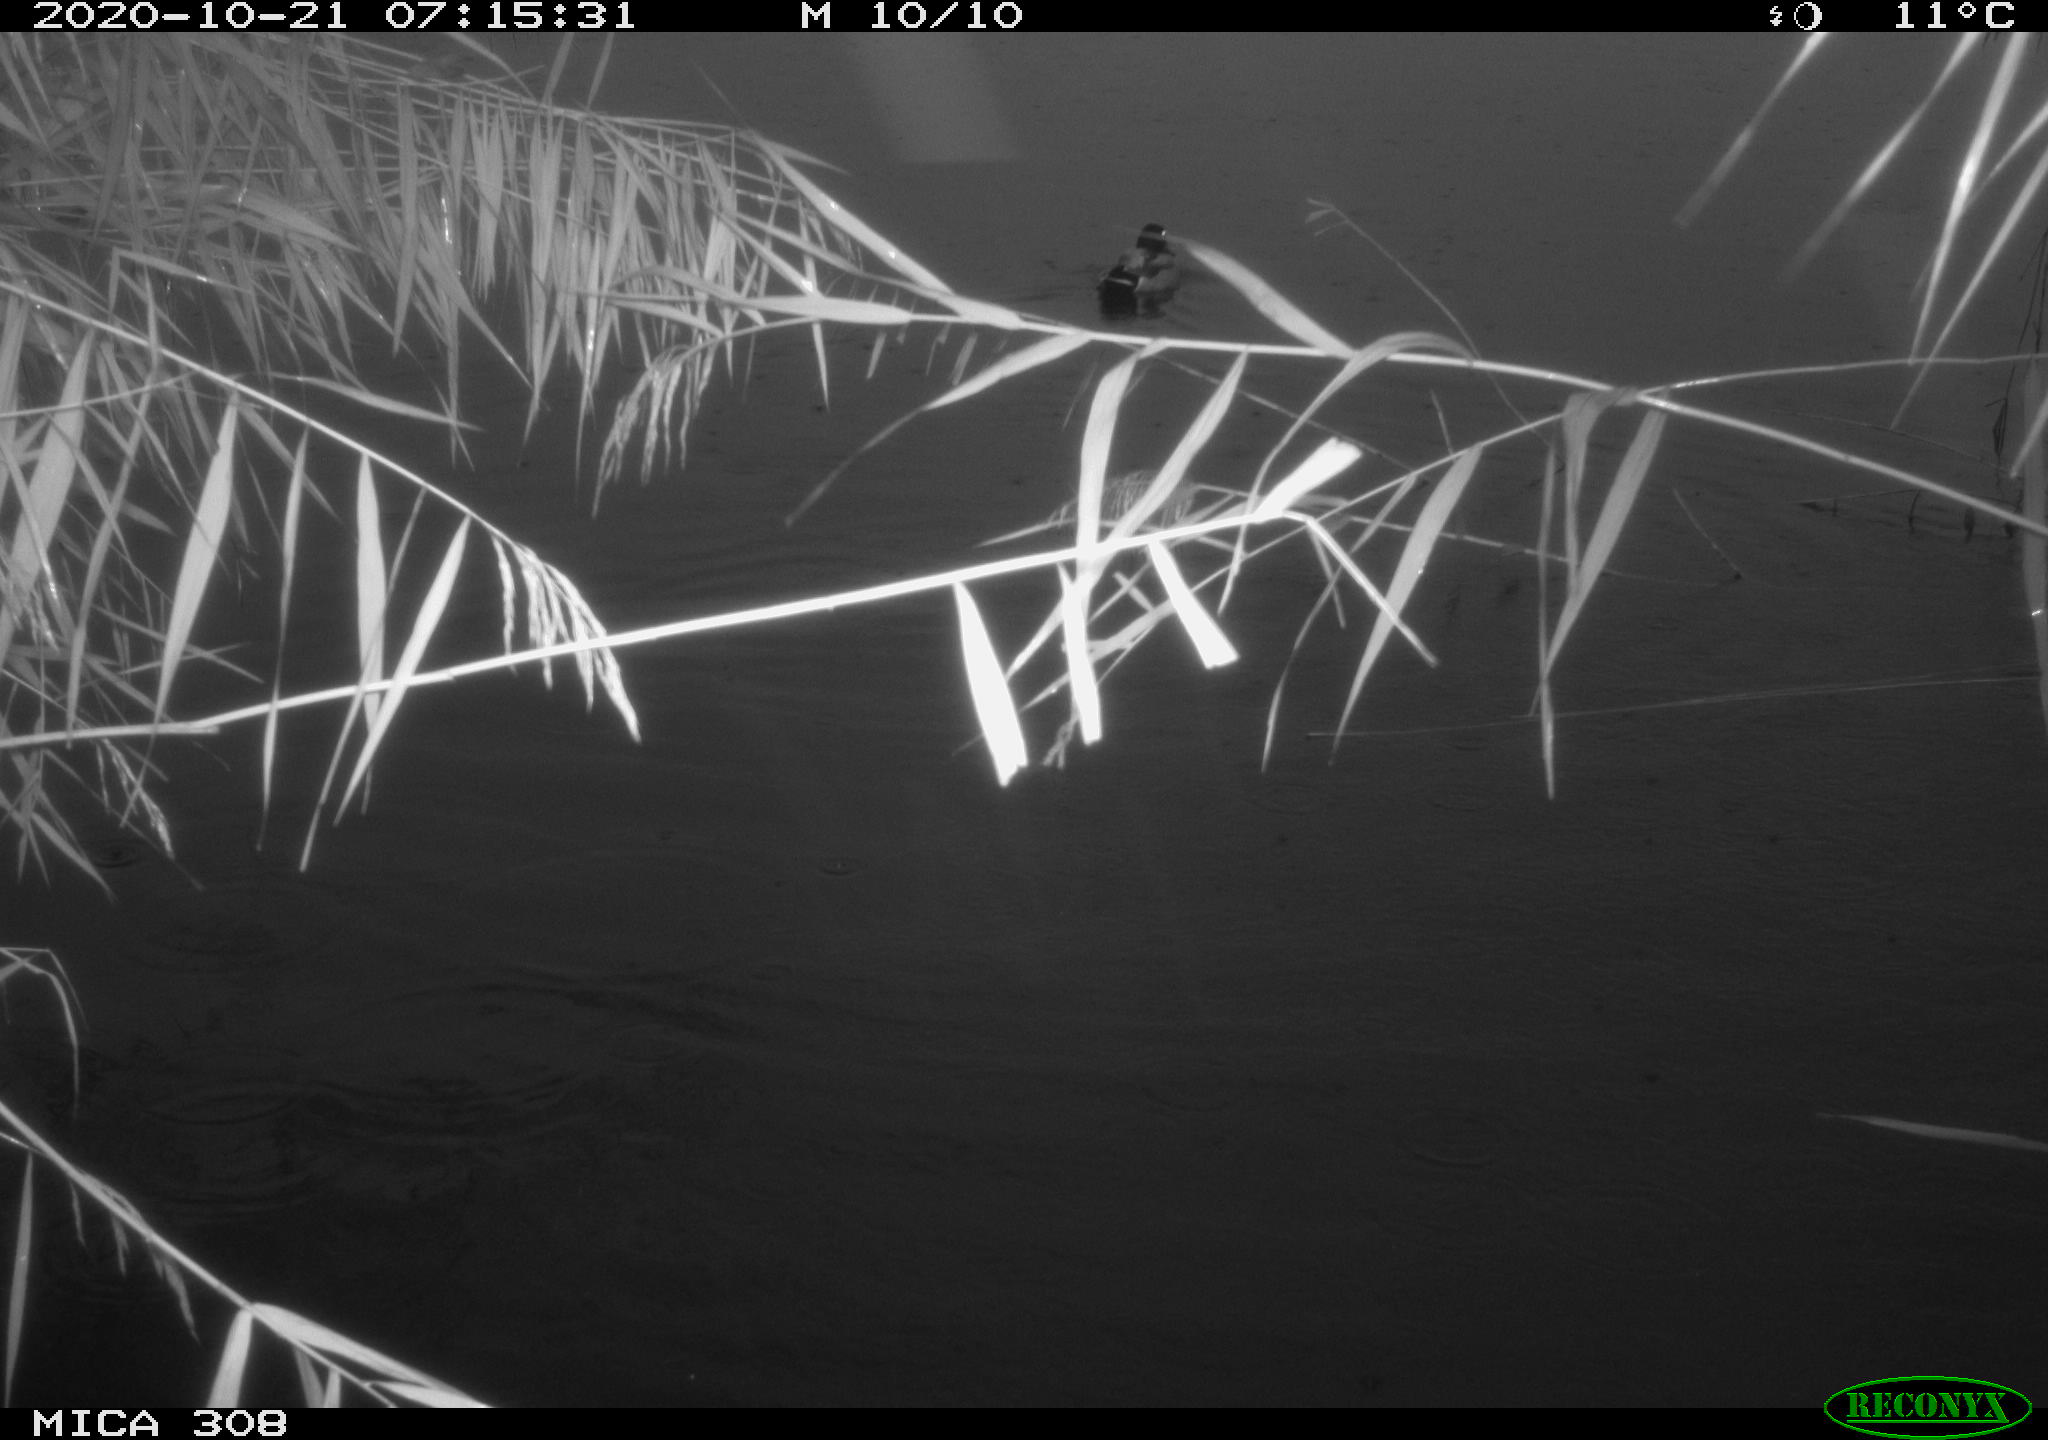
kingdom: Animalia
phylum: Chordata
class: Aves
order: Gruiformes
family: Rallidae
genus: Fulica
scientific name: Fulica atra
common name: Eurasian coot
